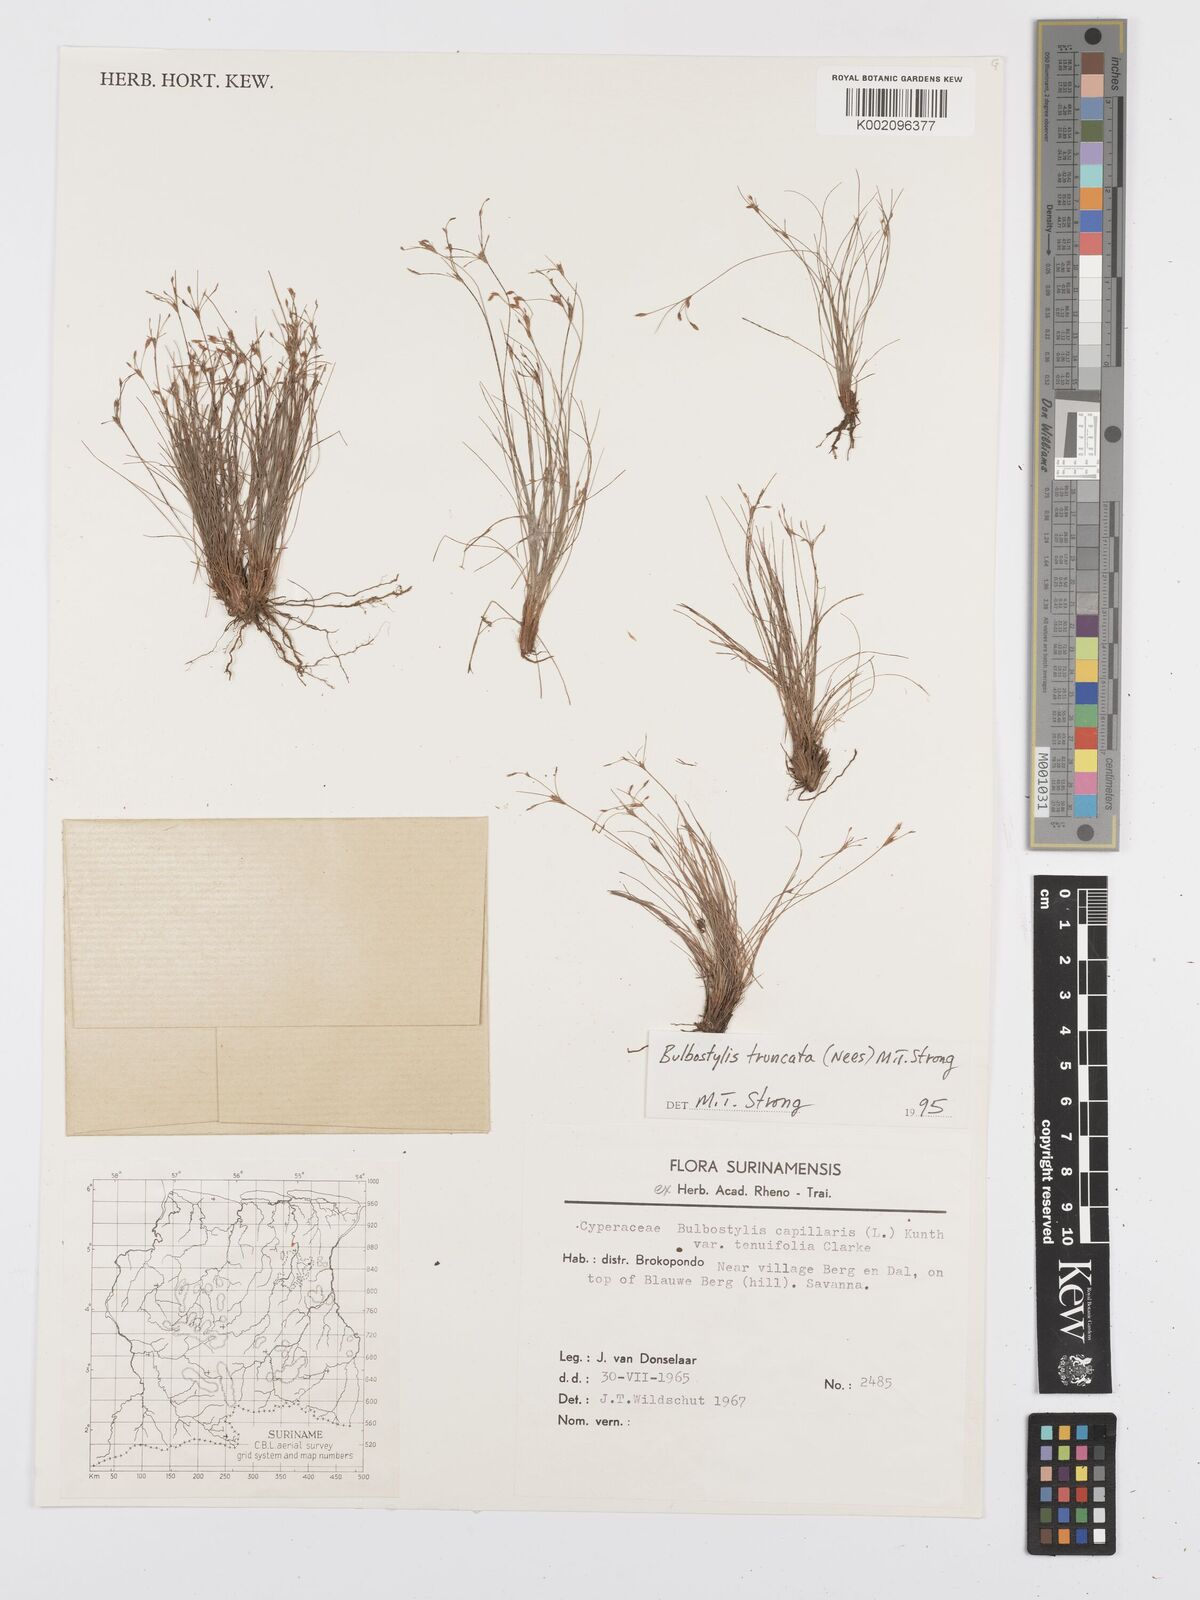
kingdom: Plantae
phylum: Tracheophyta
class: Liliopsida
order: Poales
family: Cyperaceae
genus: Bulbostylis
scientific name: Bulbostylis truncata
